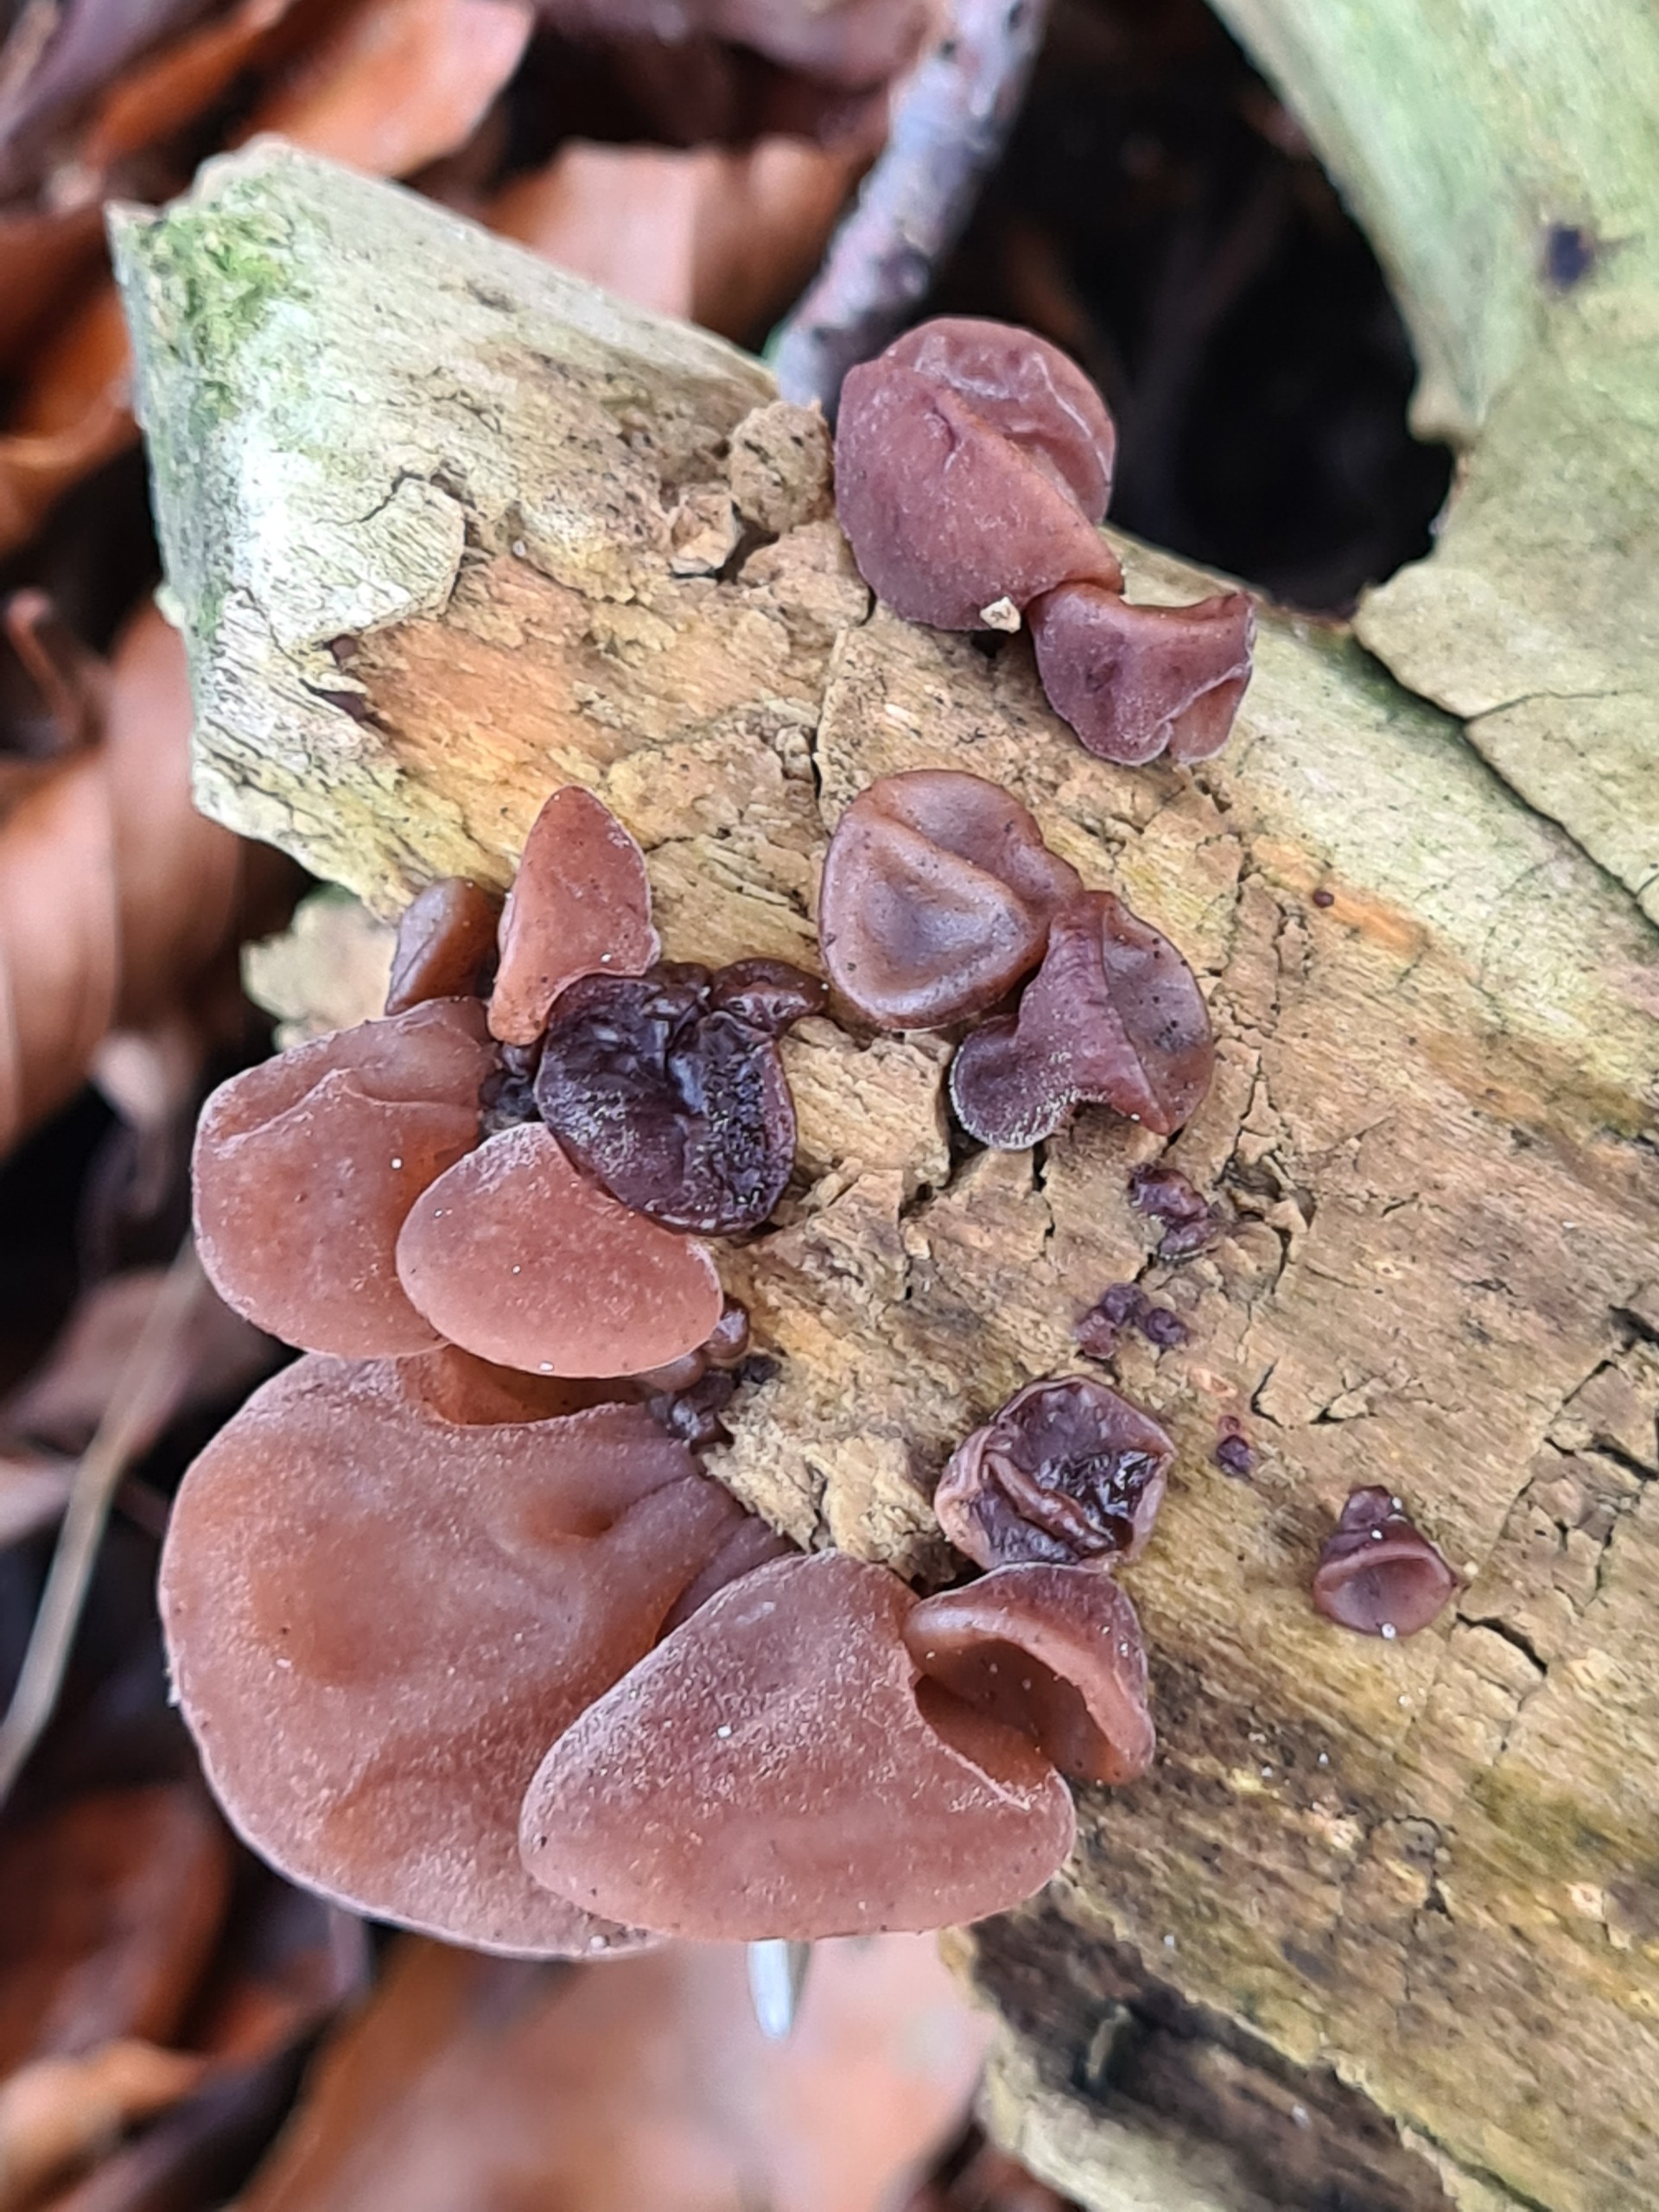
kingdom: Fungi
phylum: Basidiomycota
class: Agaricomycetes
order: Auriculariales
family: Auriculariaceae
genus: Auricularia
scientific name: Auricularia auricula-judae
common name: Almindelig judasøre
